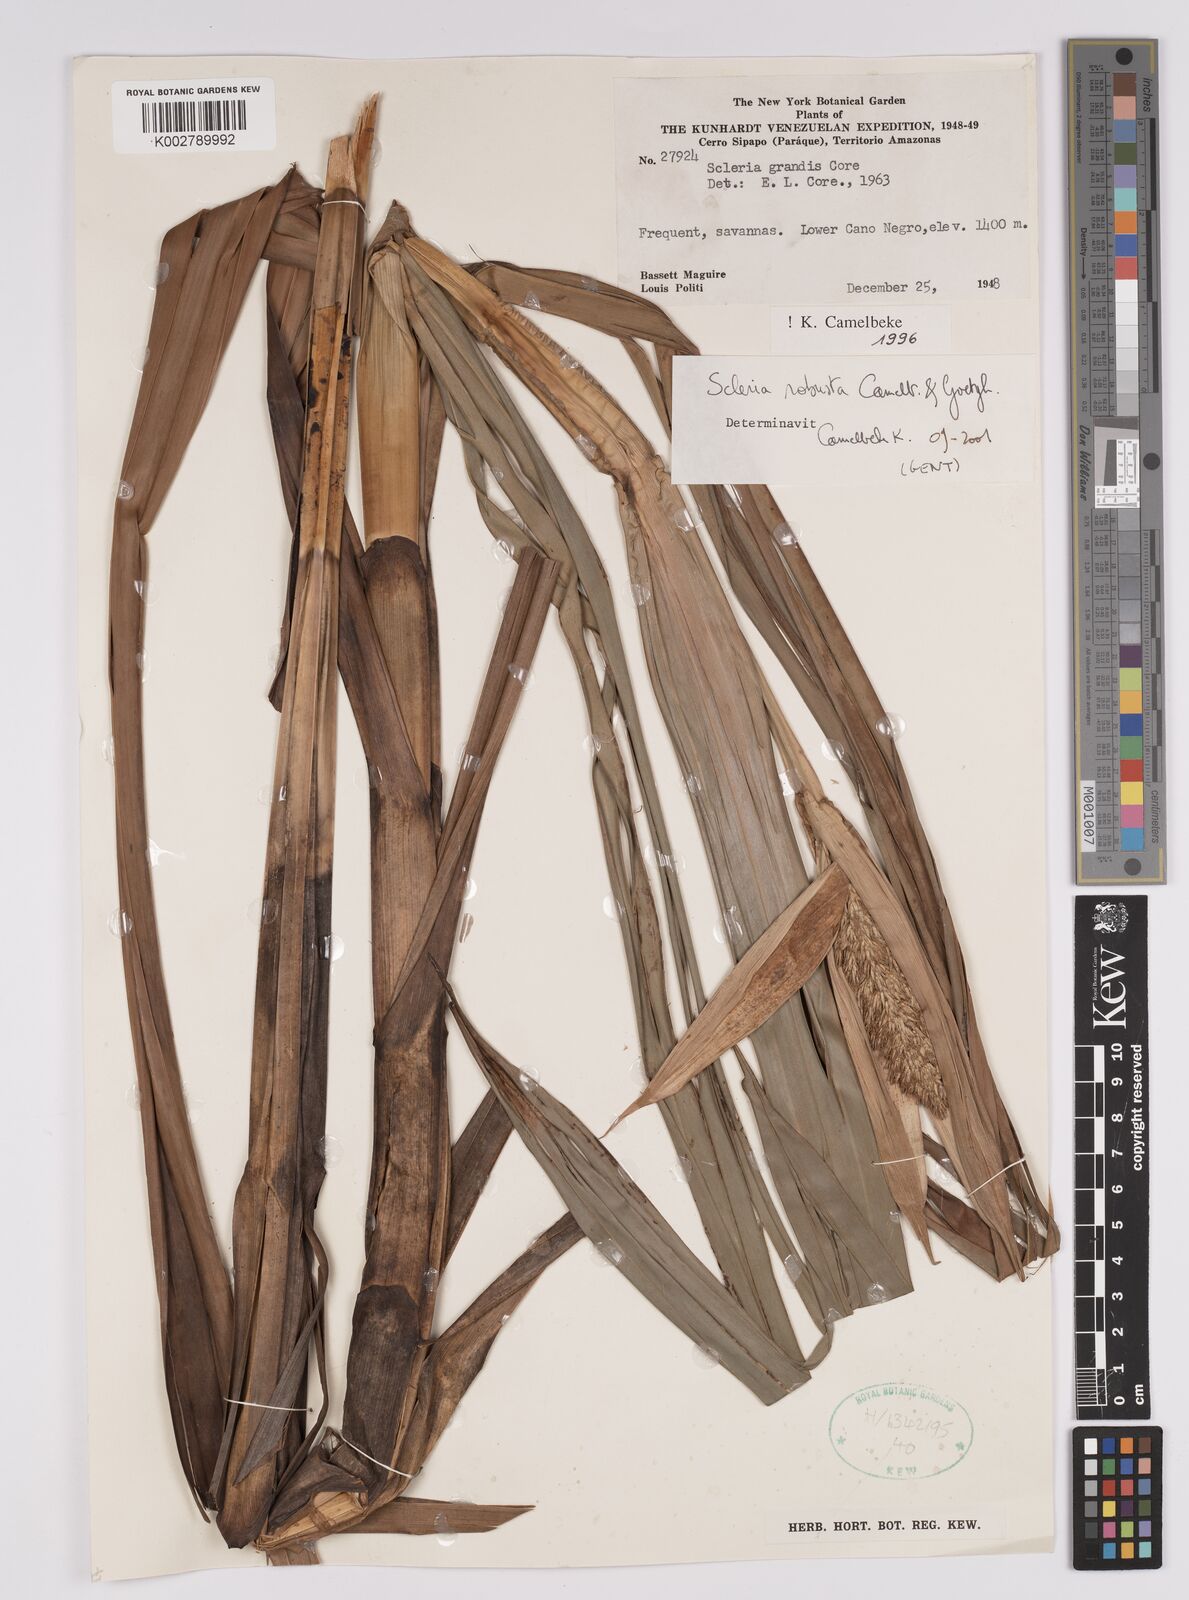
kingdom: Plantae
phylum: Tracheophyta
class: Liliopsida
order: Poales
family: Cyperaceae
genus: Scleria
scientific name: Scleria robusta
